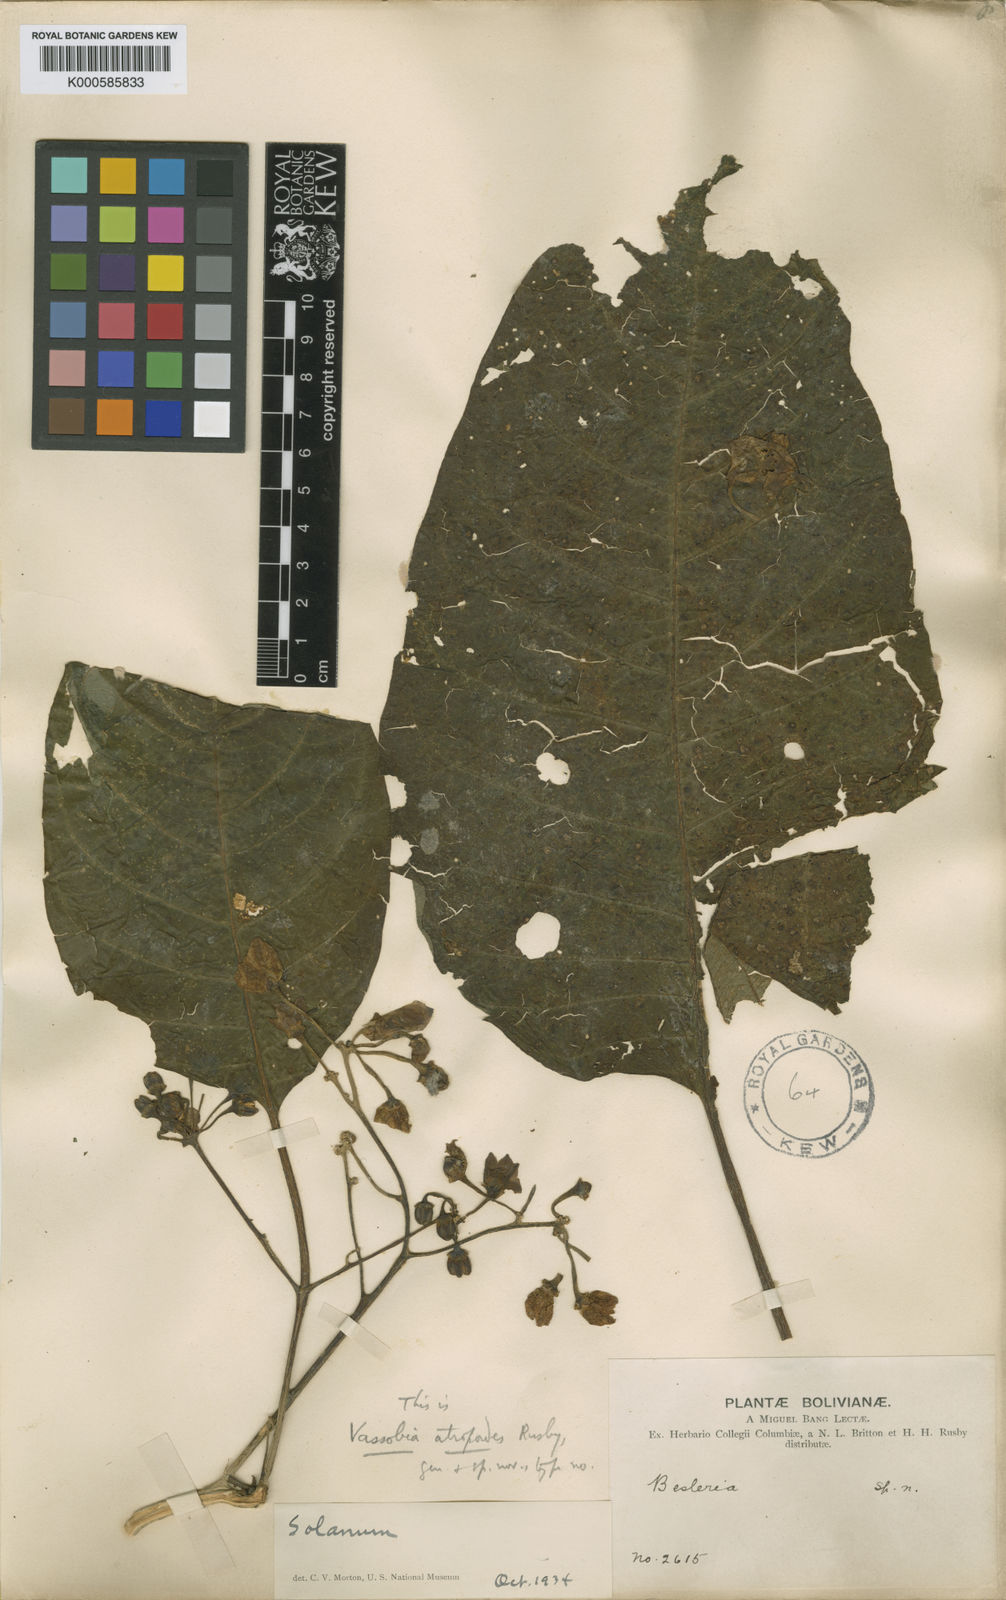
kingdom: Plantae
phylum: Tracheophyta
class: Magnoliopsida
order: Solanales
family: Solanaceae
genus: Vassobia
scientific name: Vassobia dichotoma
